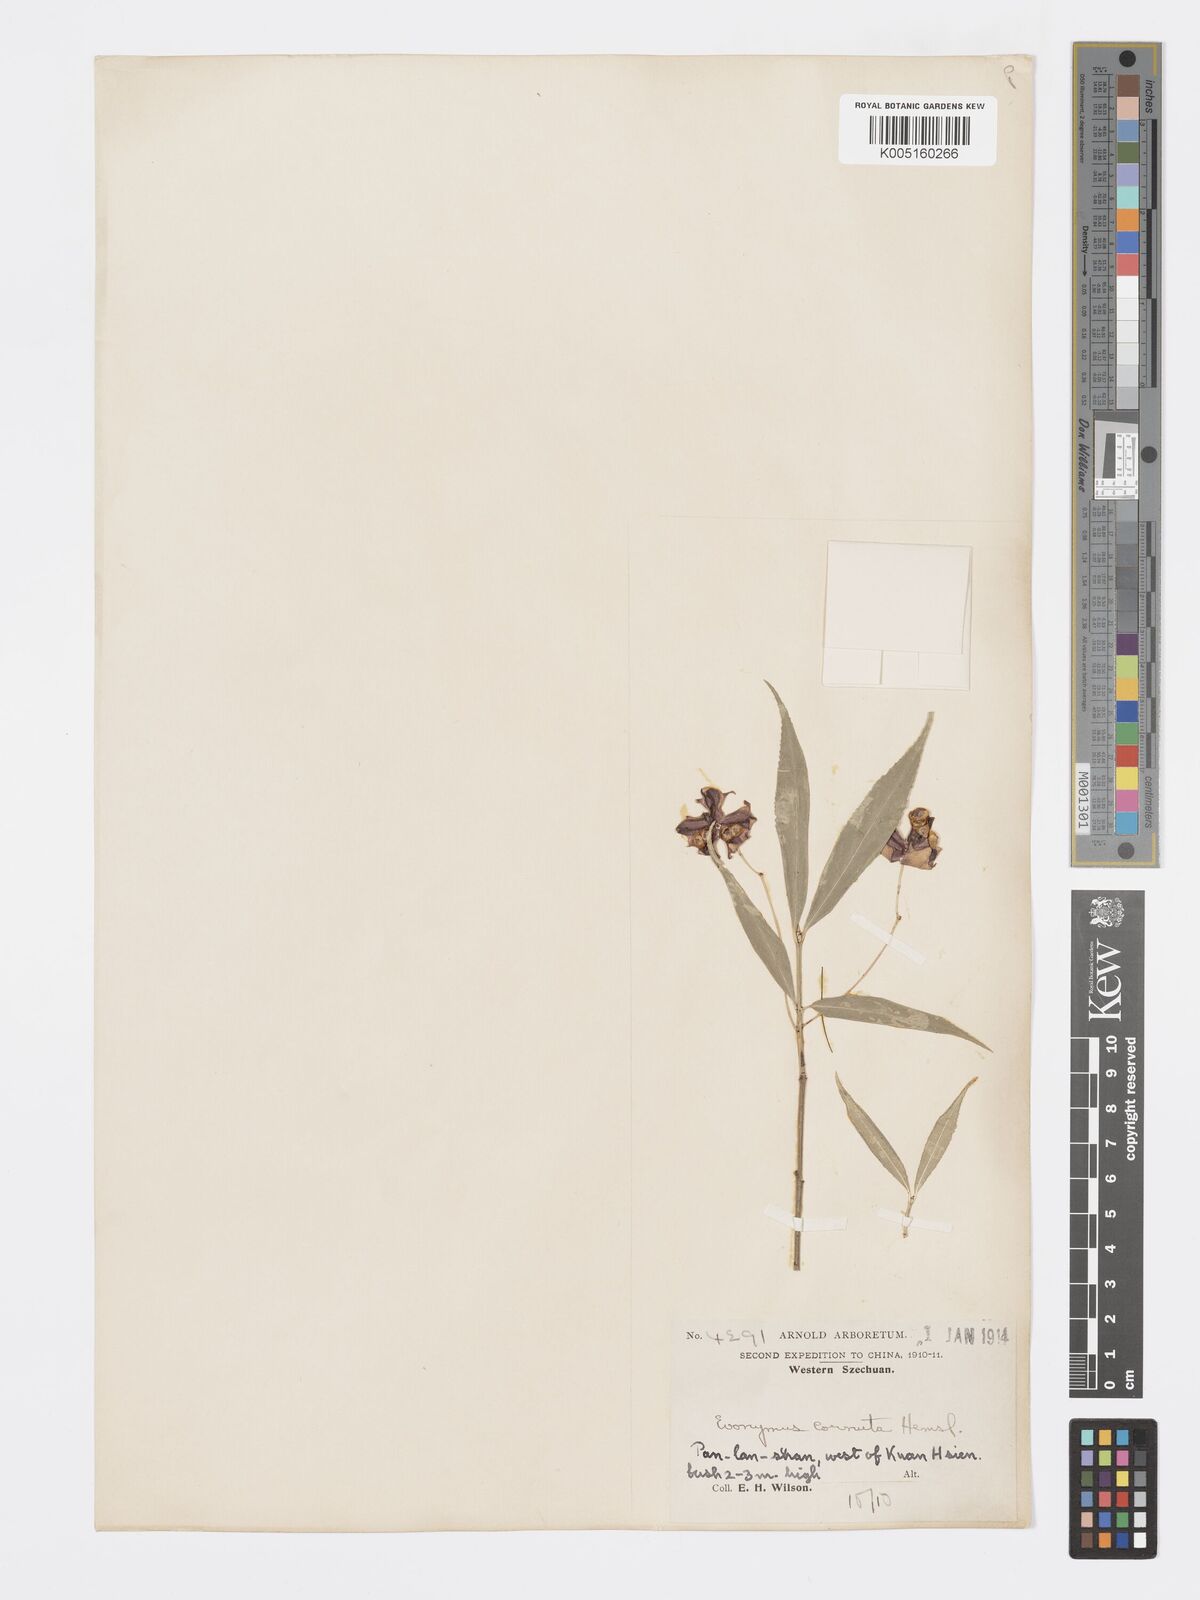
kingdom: Plantae
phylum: Tracheophyta
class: Magnoliopsida
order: Celastrales
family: Celastraceae
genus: Euonymus
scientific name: Euonymus cornutus
